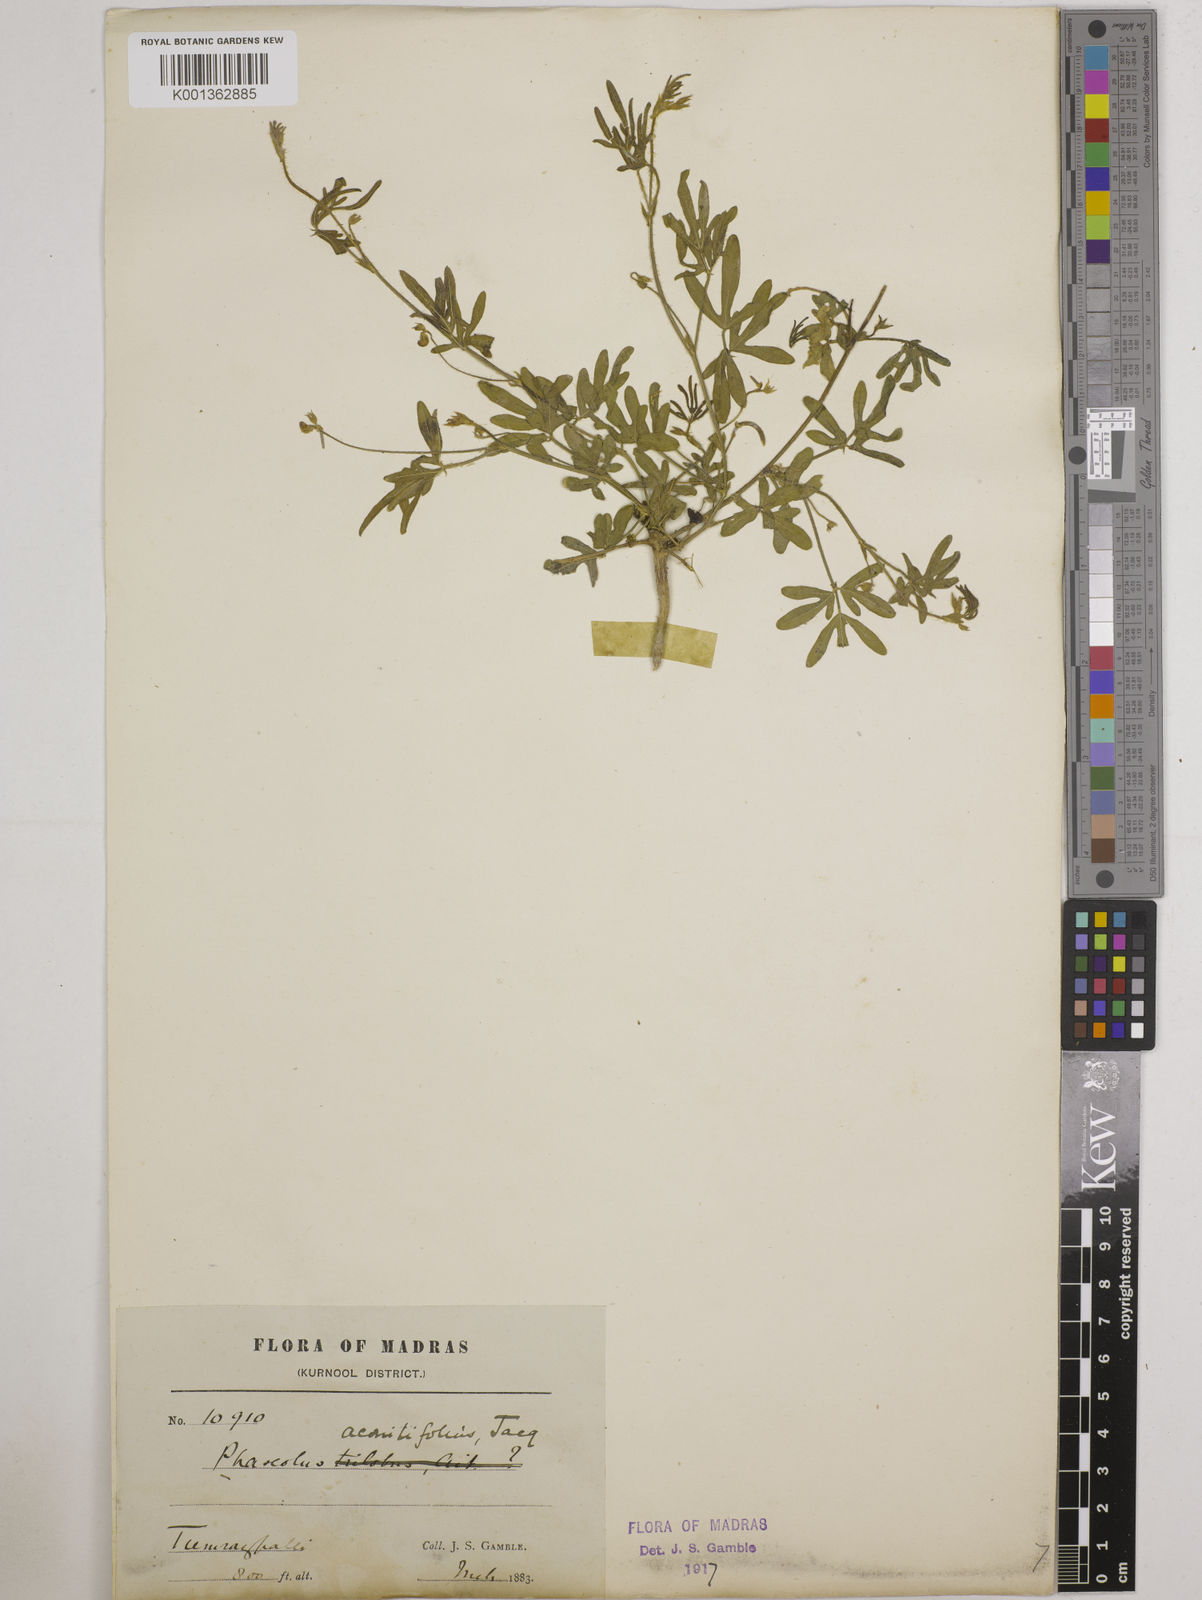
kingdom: Plantae
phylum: Tracheophyta
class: Magnoliopsida
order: Fabales
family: Fabaceae
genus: Vigna
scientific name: Vigna aconitifolia
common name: Dew bean
